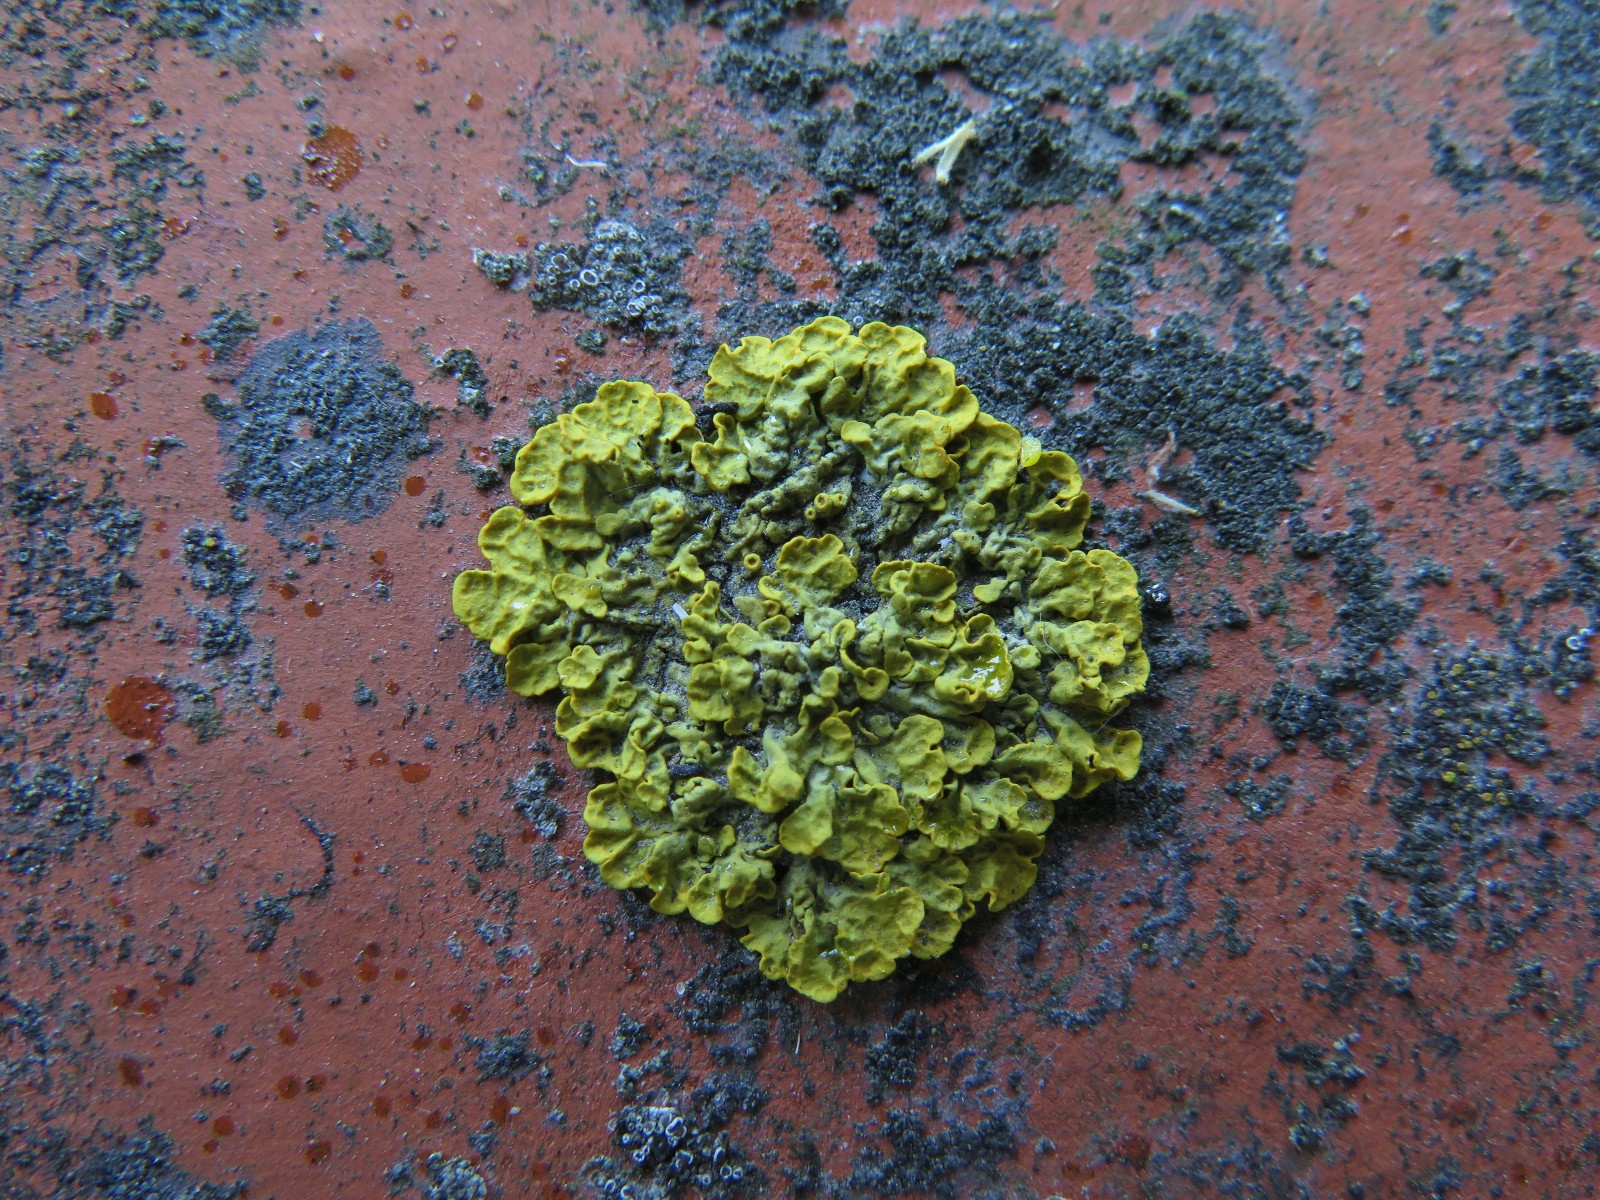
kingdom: Fungi
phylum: Ascomycota
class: Lecanoromycetes
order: Teloschistales
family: Teloschistaceae
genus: Xanthoria
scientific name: Xanthoria parietina
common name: almindelig væggelav
